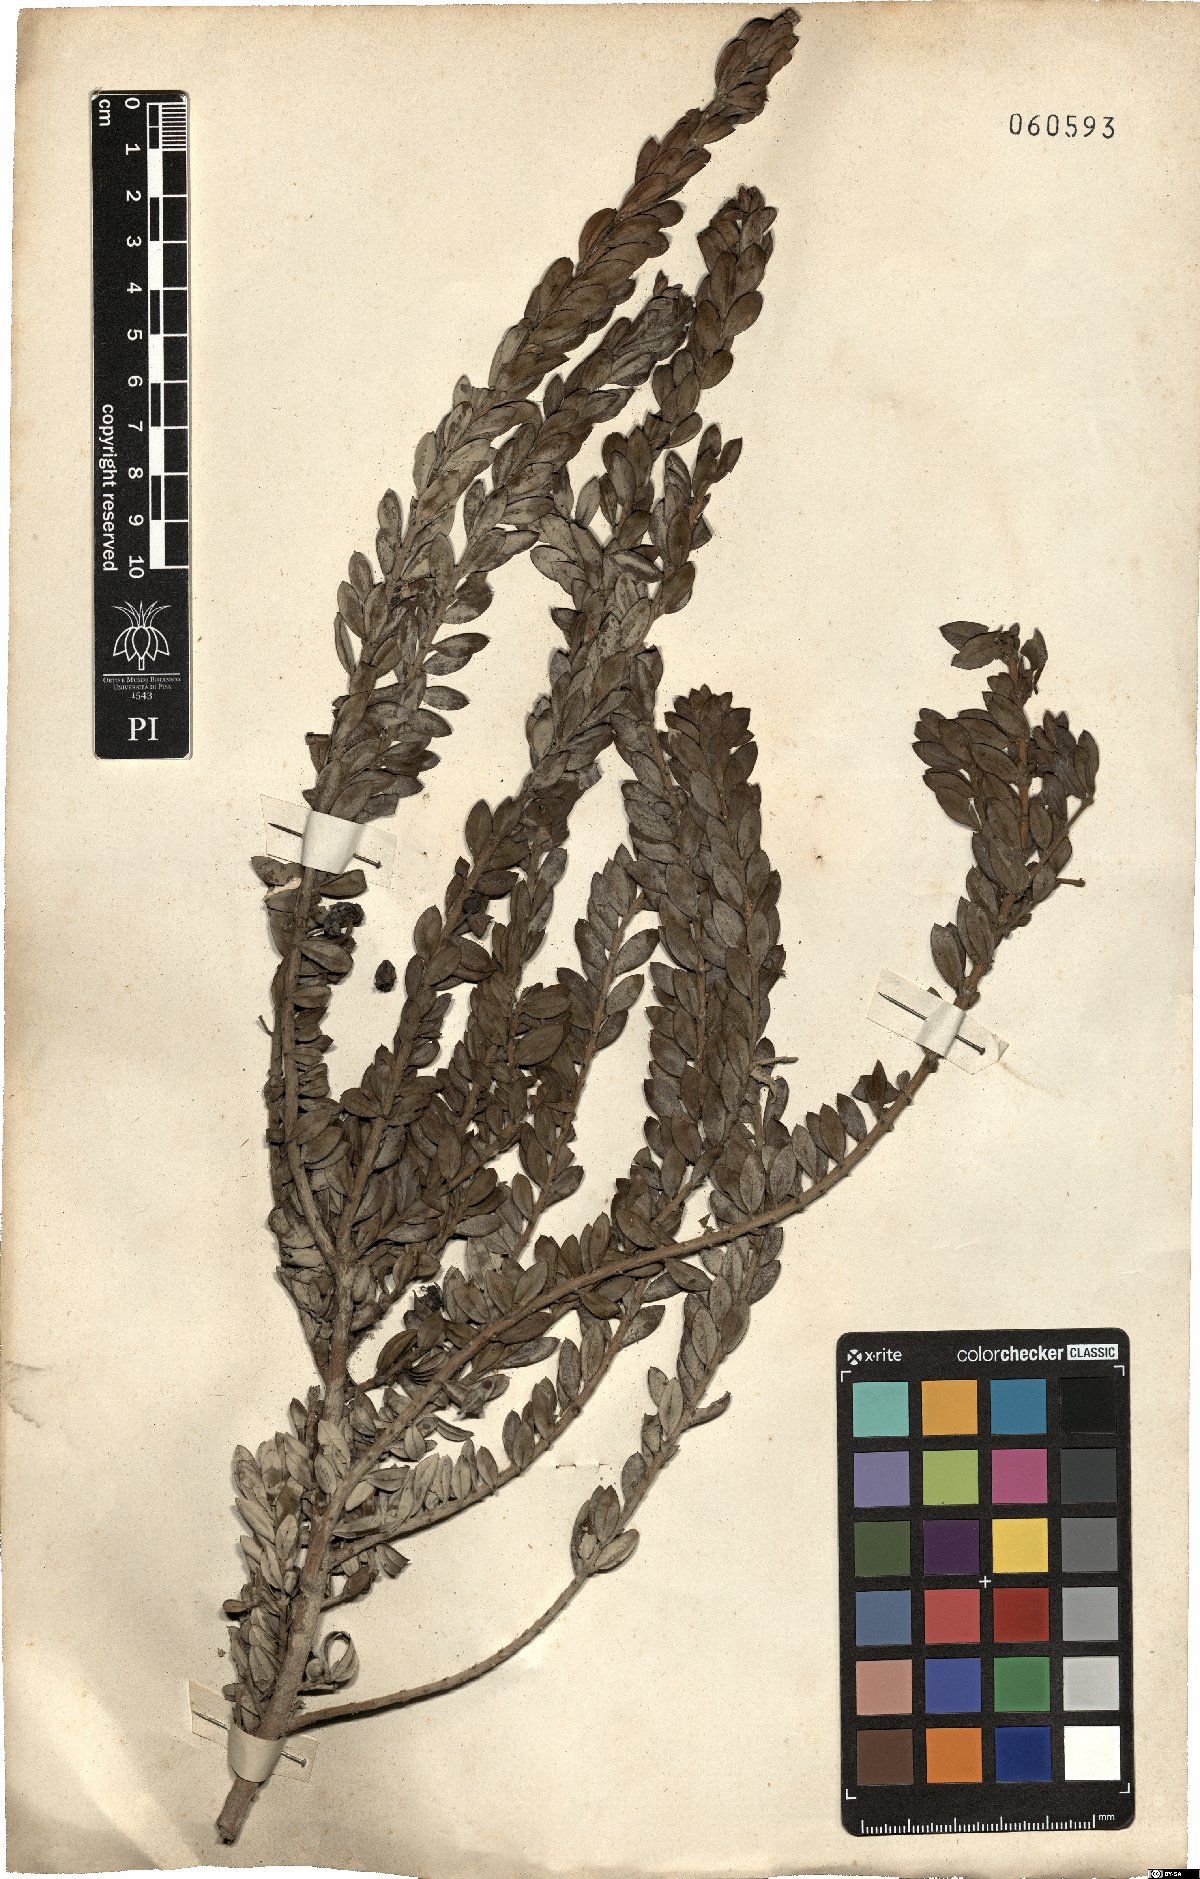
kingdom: Plantae
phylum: Tracheophyta
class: Magnoliopsida
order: Myrtales
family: Myrtaceae
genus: Myrtus
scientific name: Myrtus communis
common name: Myrtle
